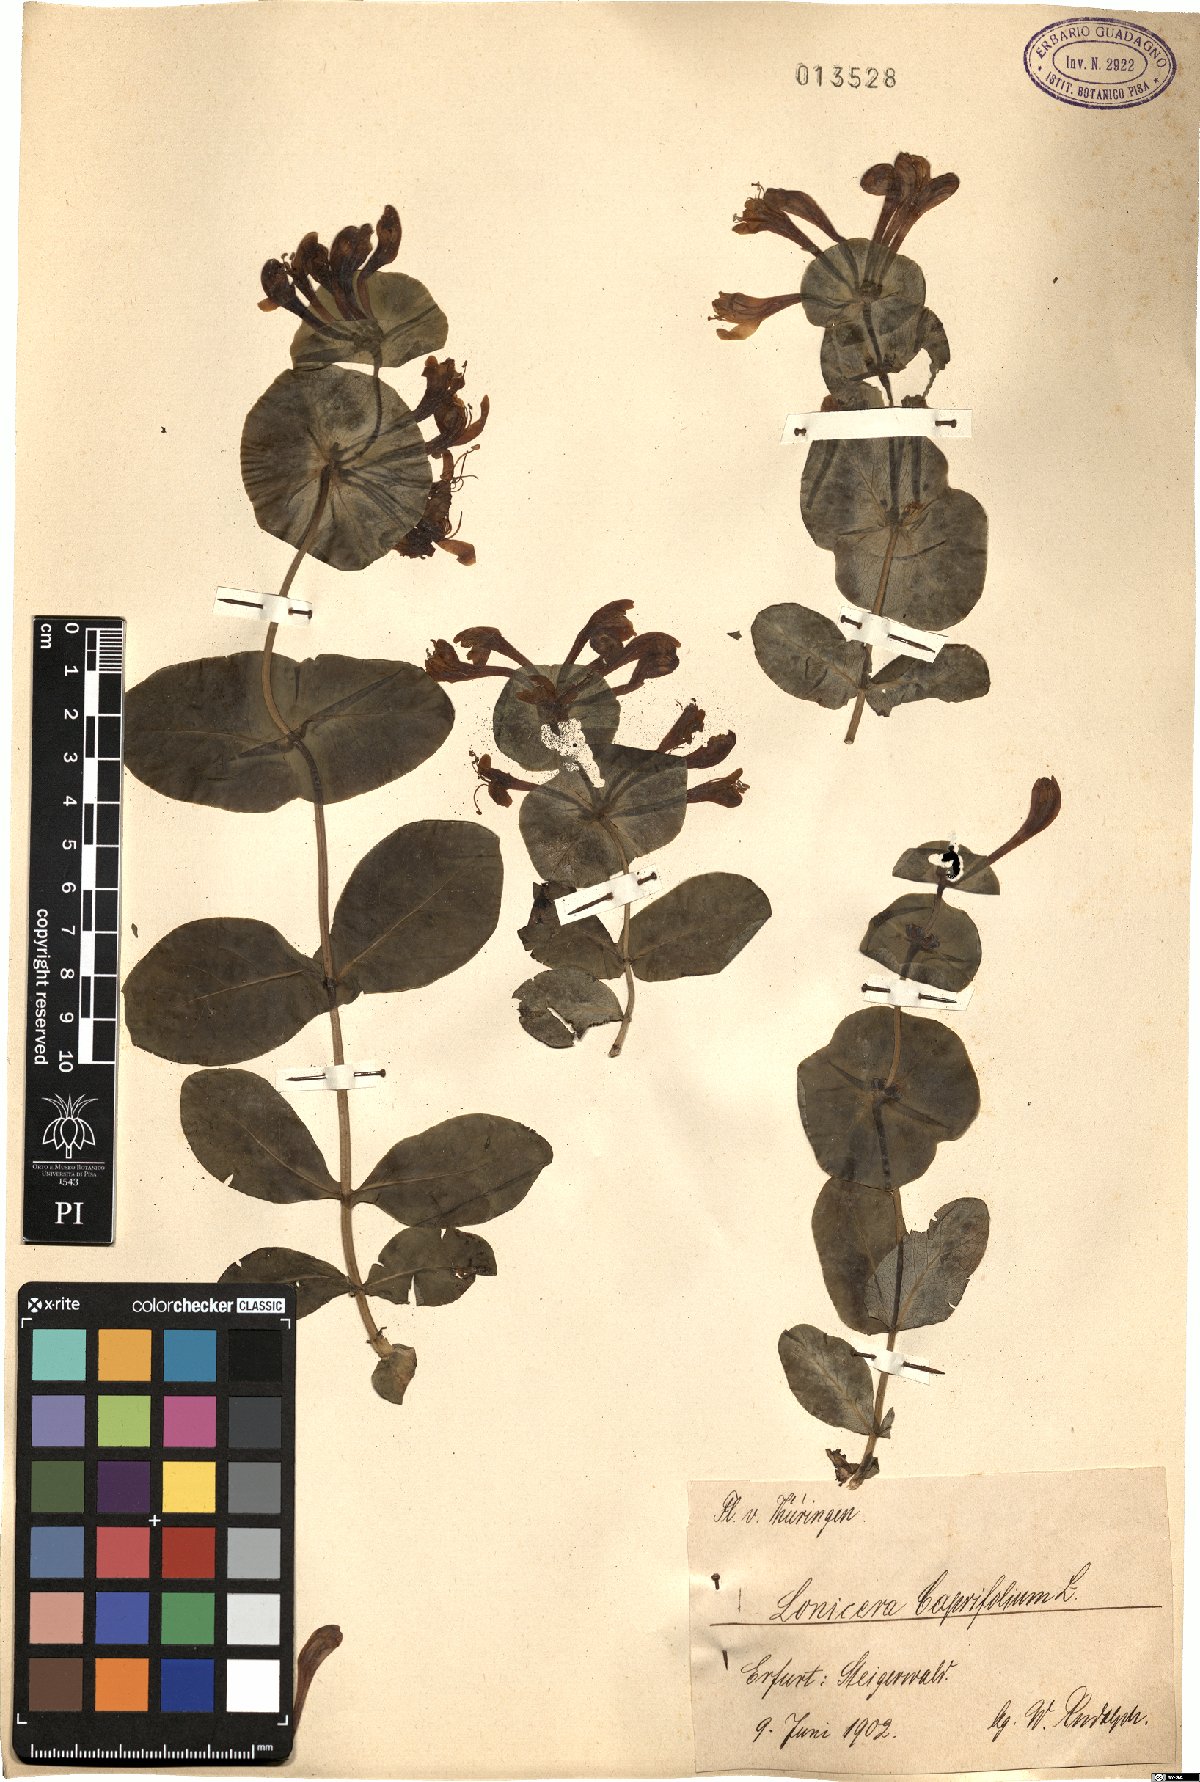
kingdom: Plantae
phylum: Tracheophyta
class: Magnoliopsida
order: Dipsacales
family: Caprifoliaceae
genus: Lonicera
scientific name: Lonicera caprifolium
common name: Perfoliate honeysuckle
